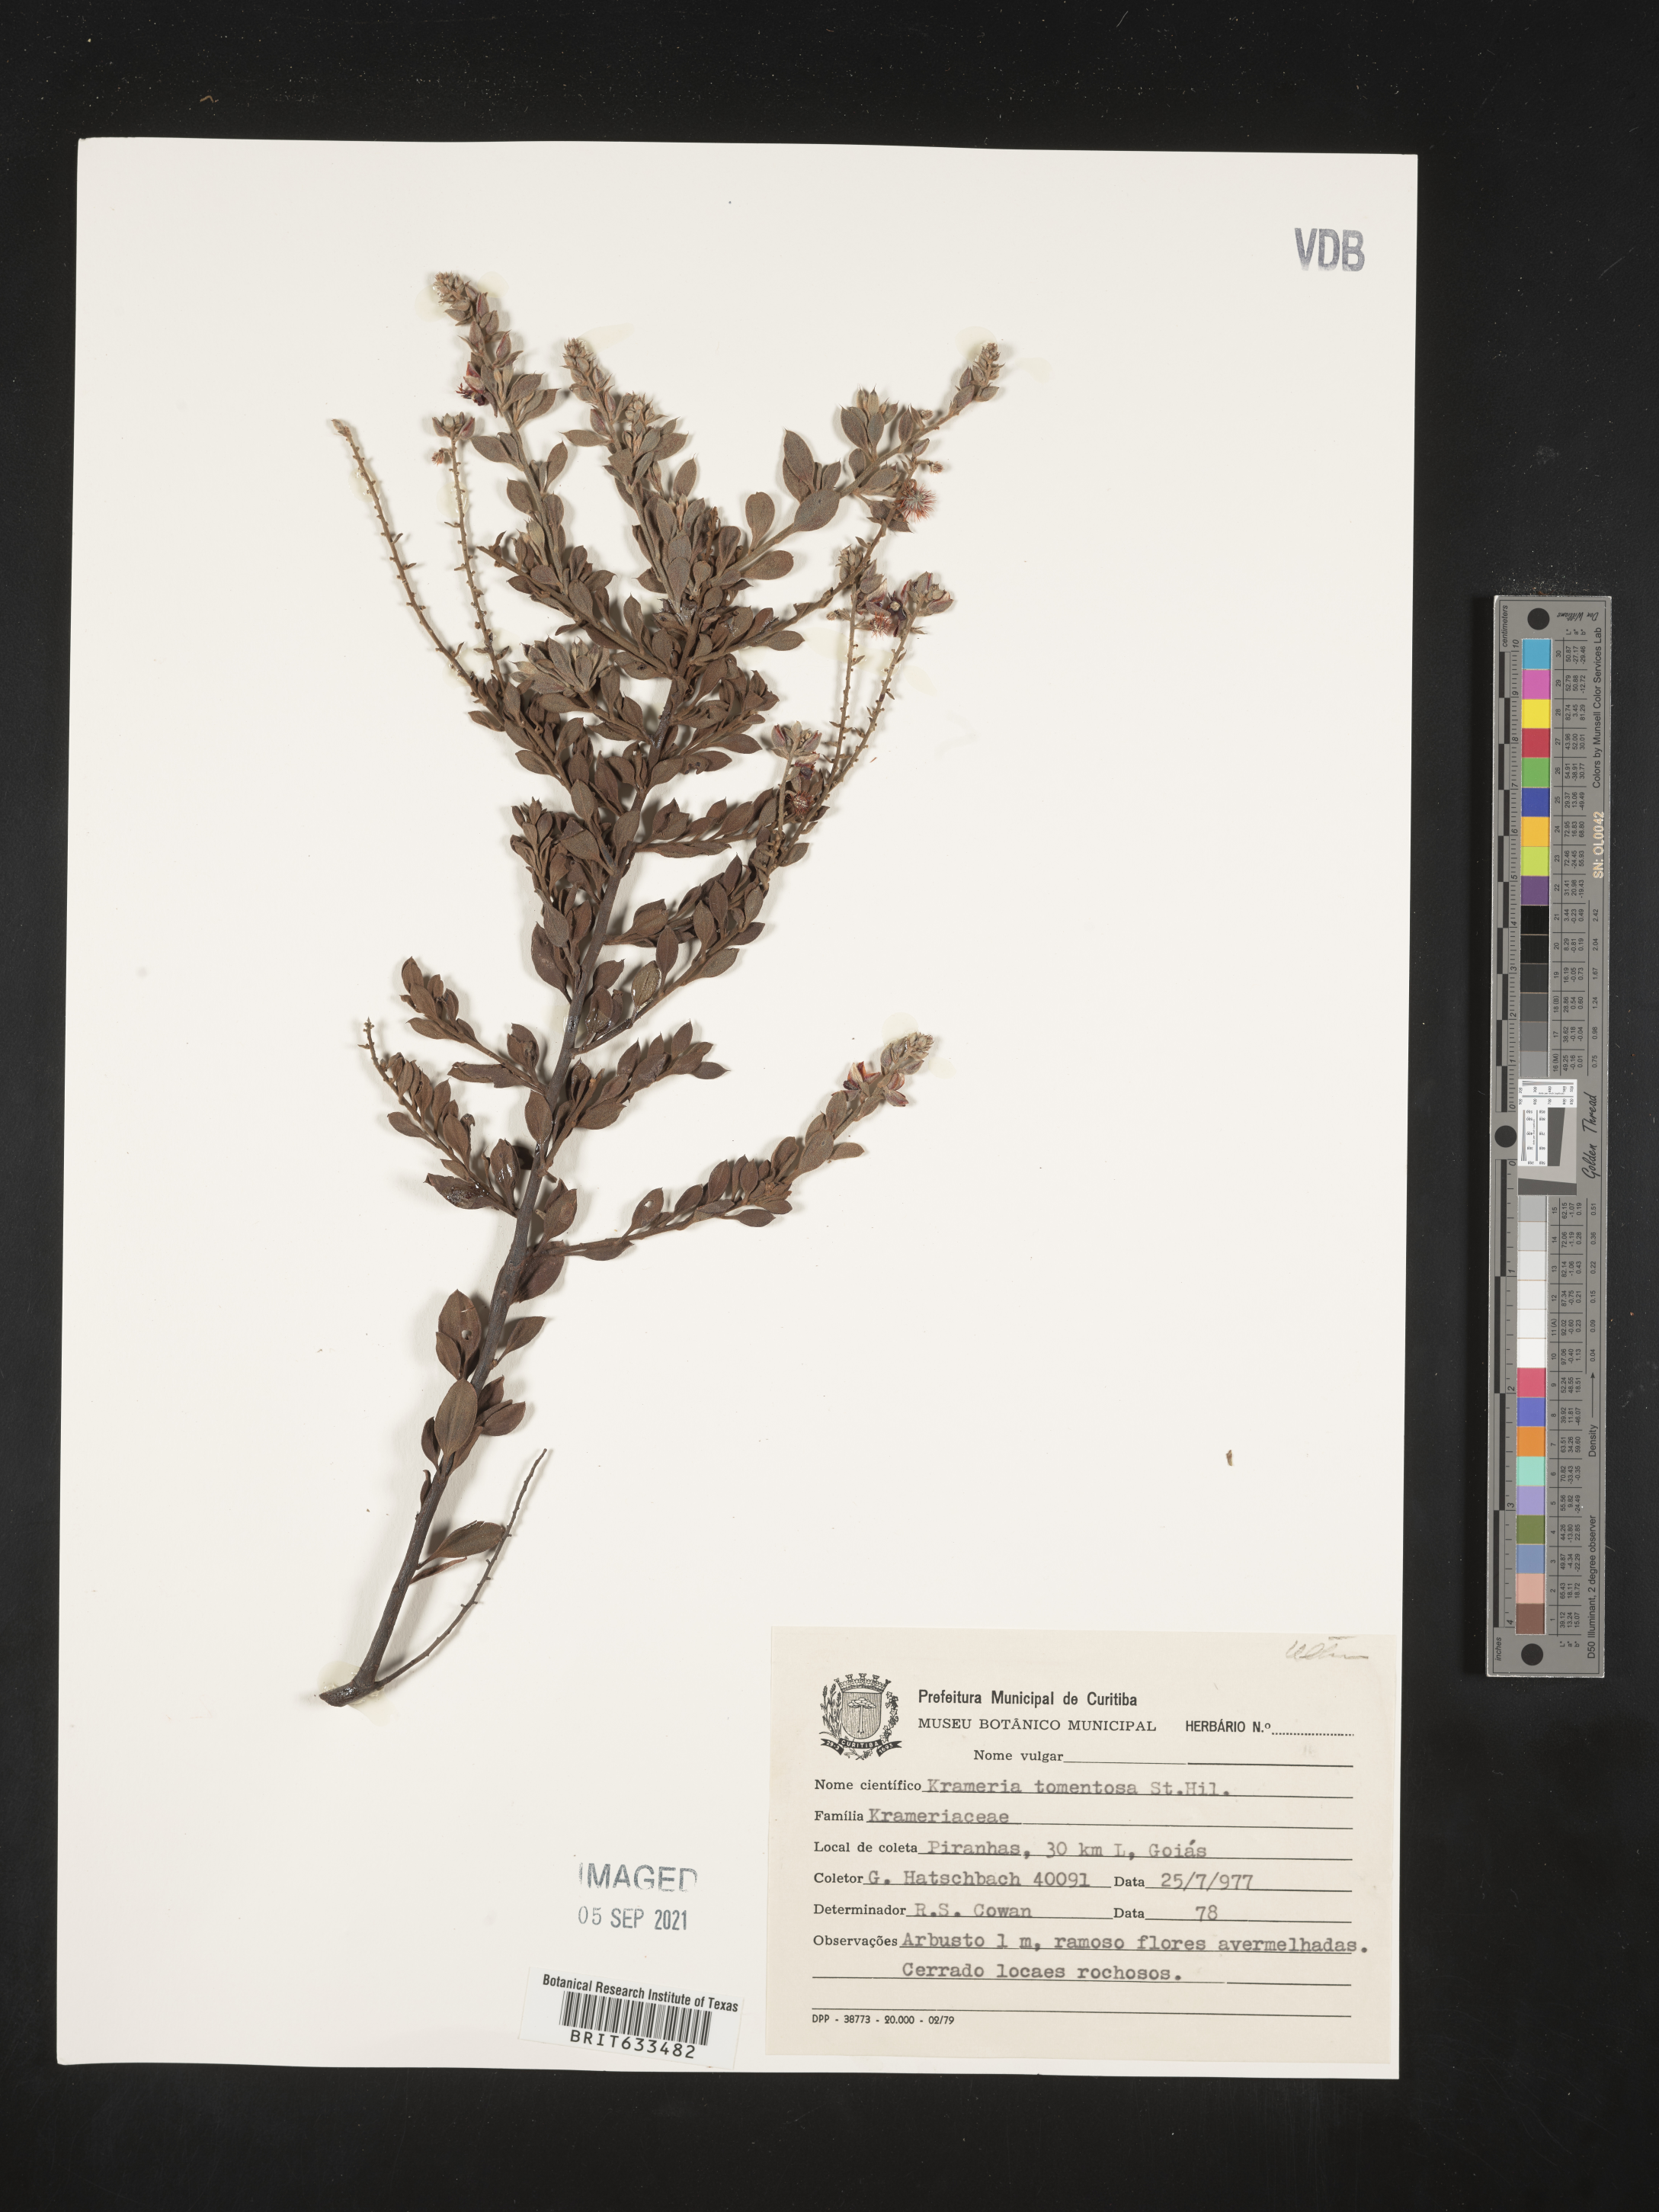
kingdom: Plantae
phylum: Tracheophyta
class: Magnoliopsida
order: Zygophyllales
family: Krameriaceae
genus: Krameria
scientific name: Krameria
